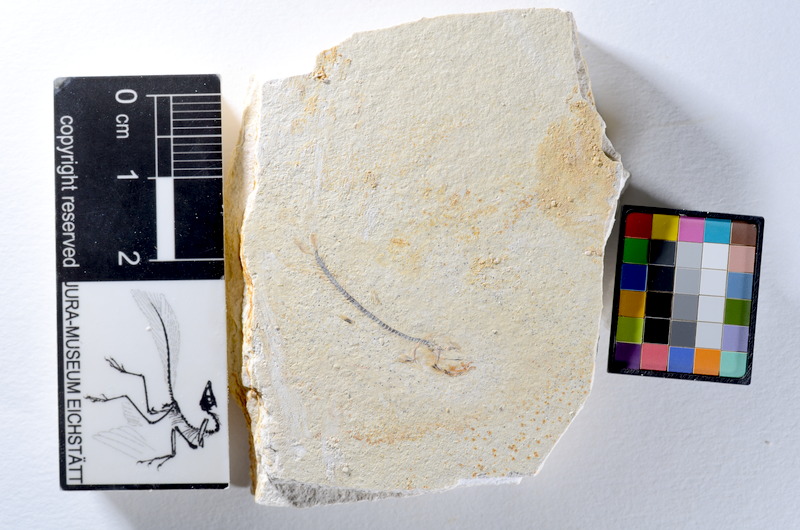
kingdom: Animalia
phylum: Chordata
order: Salmoniformes
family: Orthogonikleithridae
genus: Orthogonikleithrus
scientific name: Orthogonikleithrus hoelli
